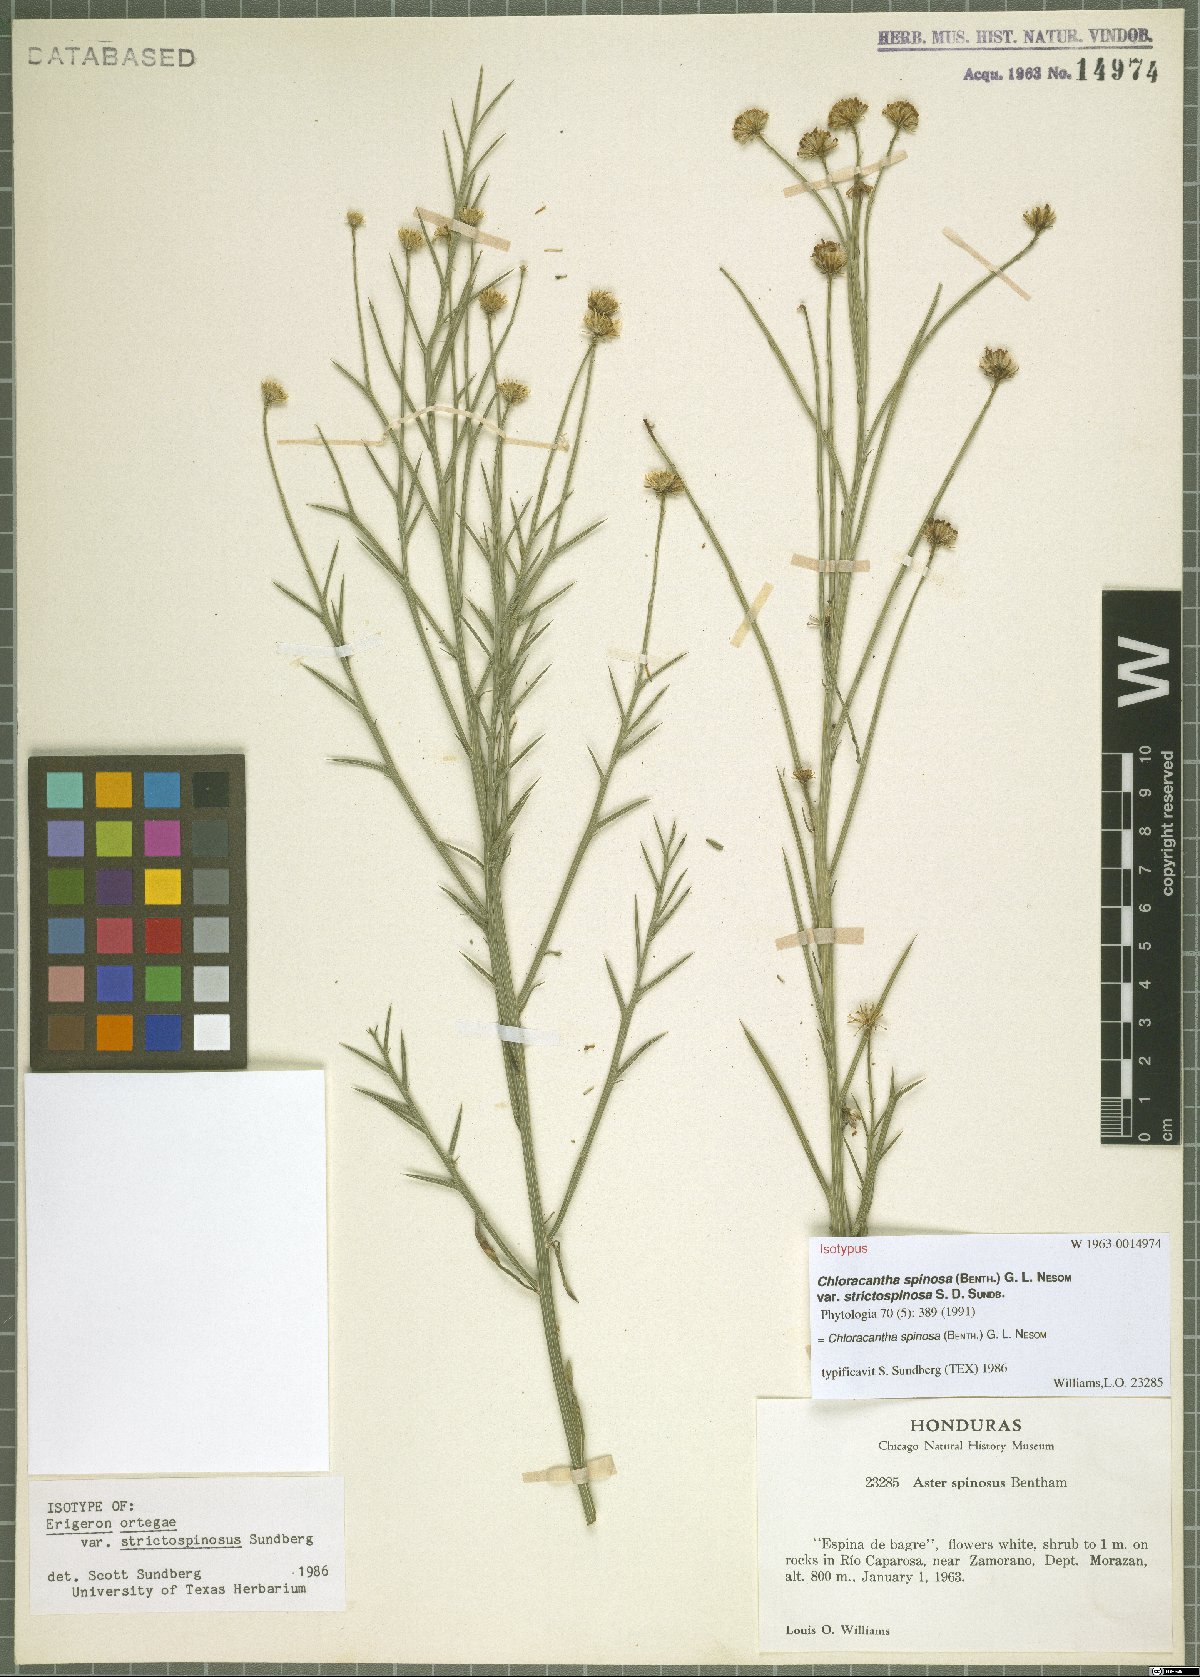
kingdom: Plantae
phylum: Tracheophyta
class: Magnoliopsida
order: Asterales
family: Asteraceae
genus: Chloracantha
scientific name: Chloracantha spinosa
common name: Mexican devilweed
